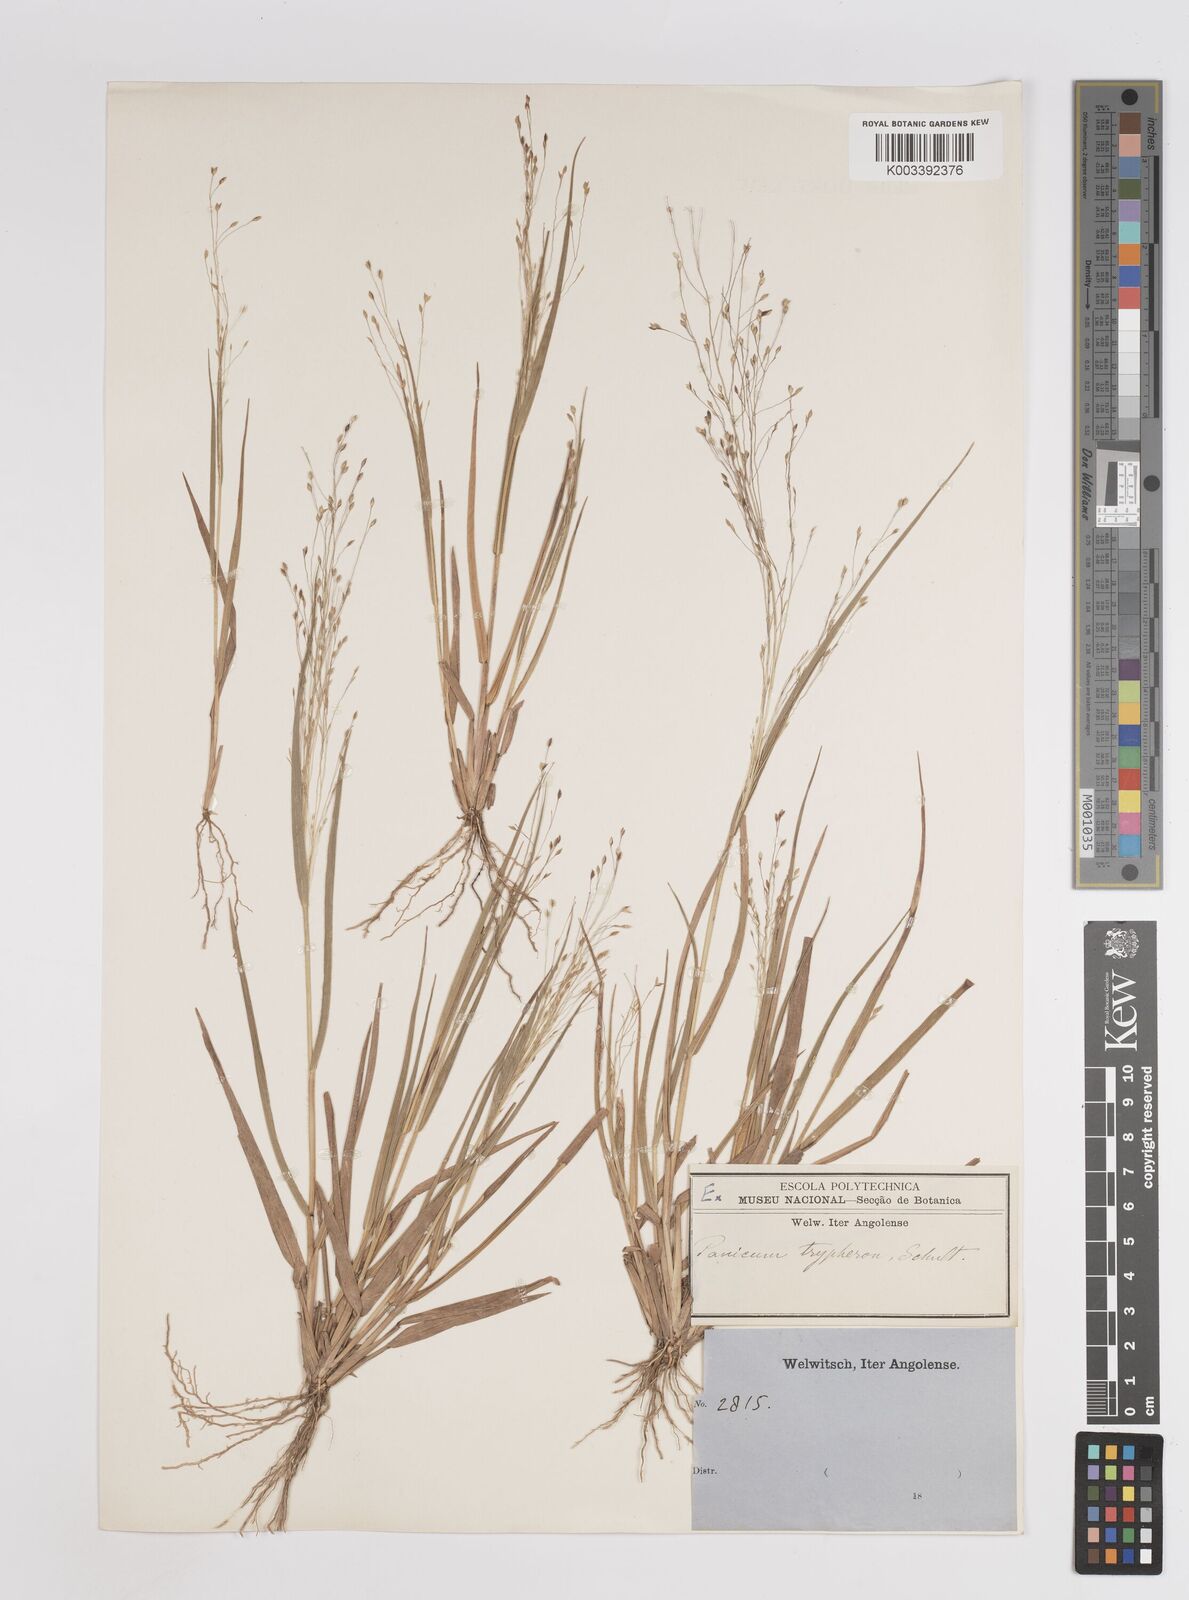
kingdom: Plantae
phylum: Tracheophyta
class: Liliopsida
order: Poales
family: Poaceae
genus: Panicum
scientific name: Panicum pansum
